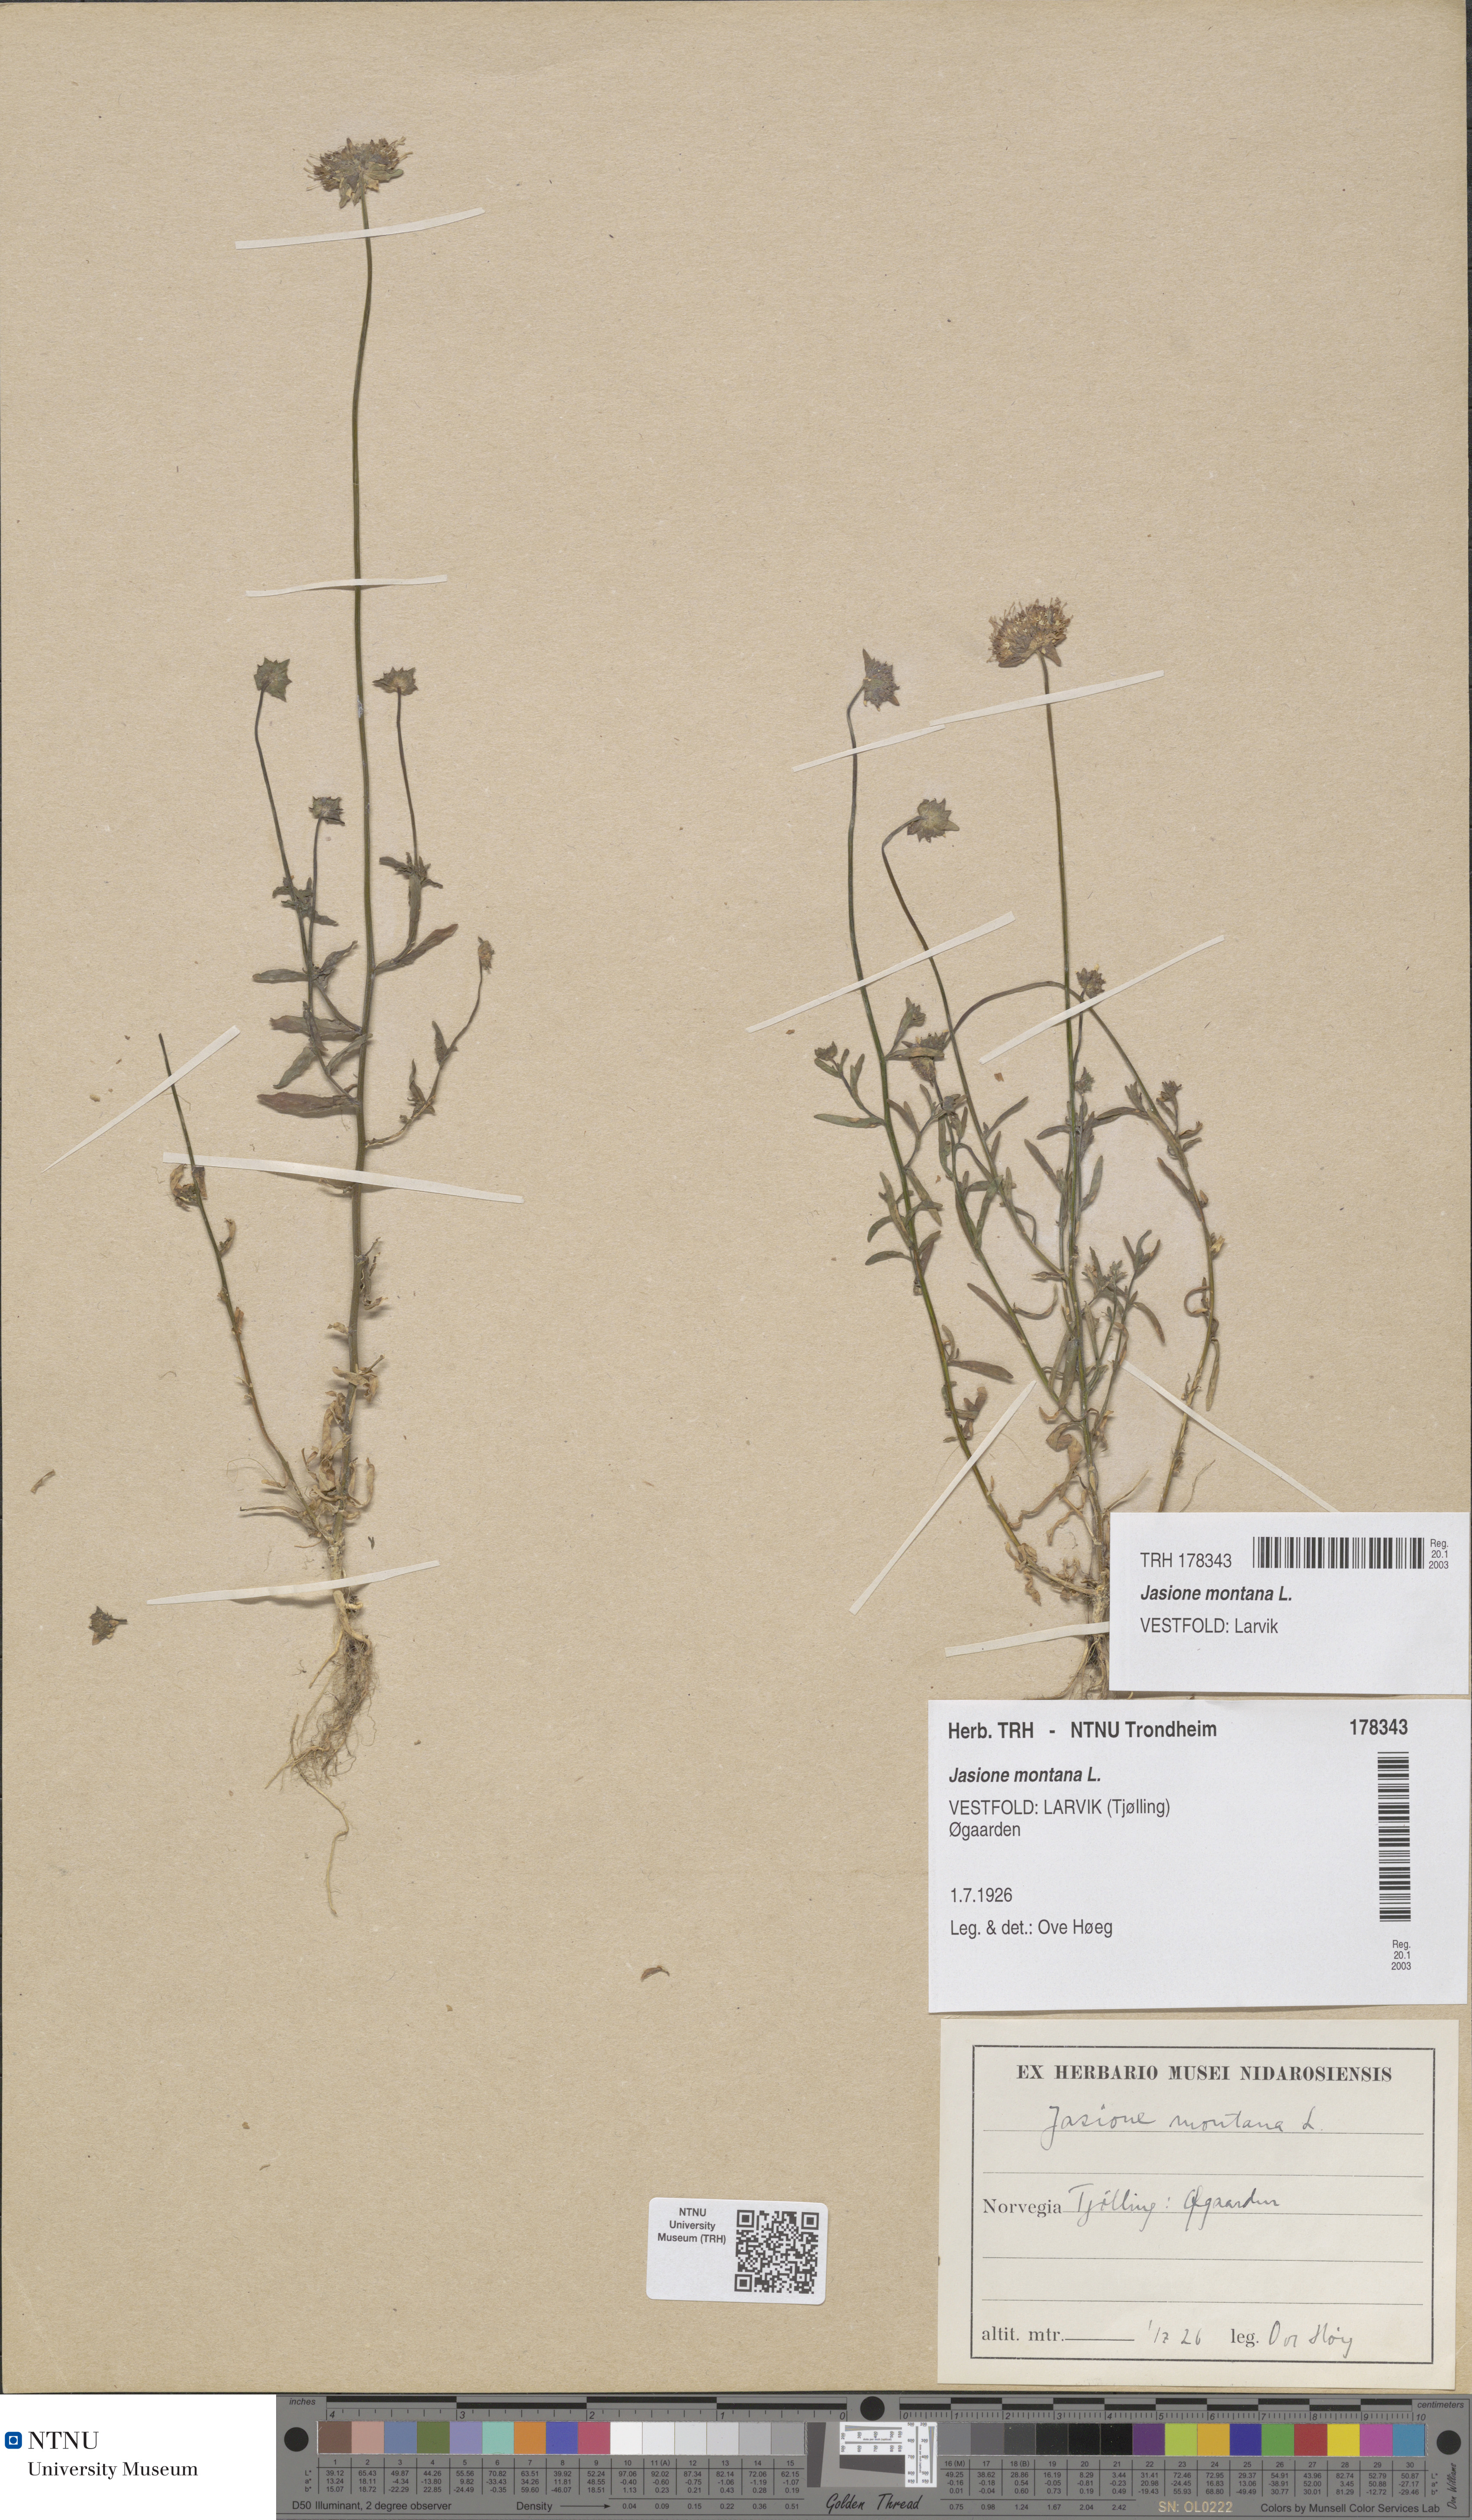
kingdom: Plantae
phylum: Tracheophyta
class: Magnoliopsida
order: Asterales
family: Campanulaceae
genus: Jasione
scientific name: Jasione montana
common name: Sheep's-bit
